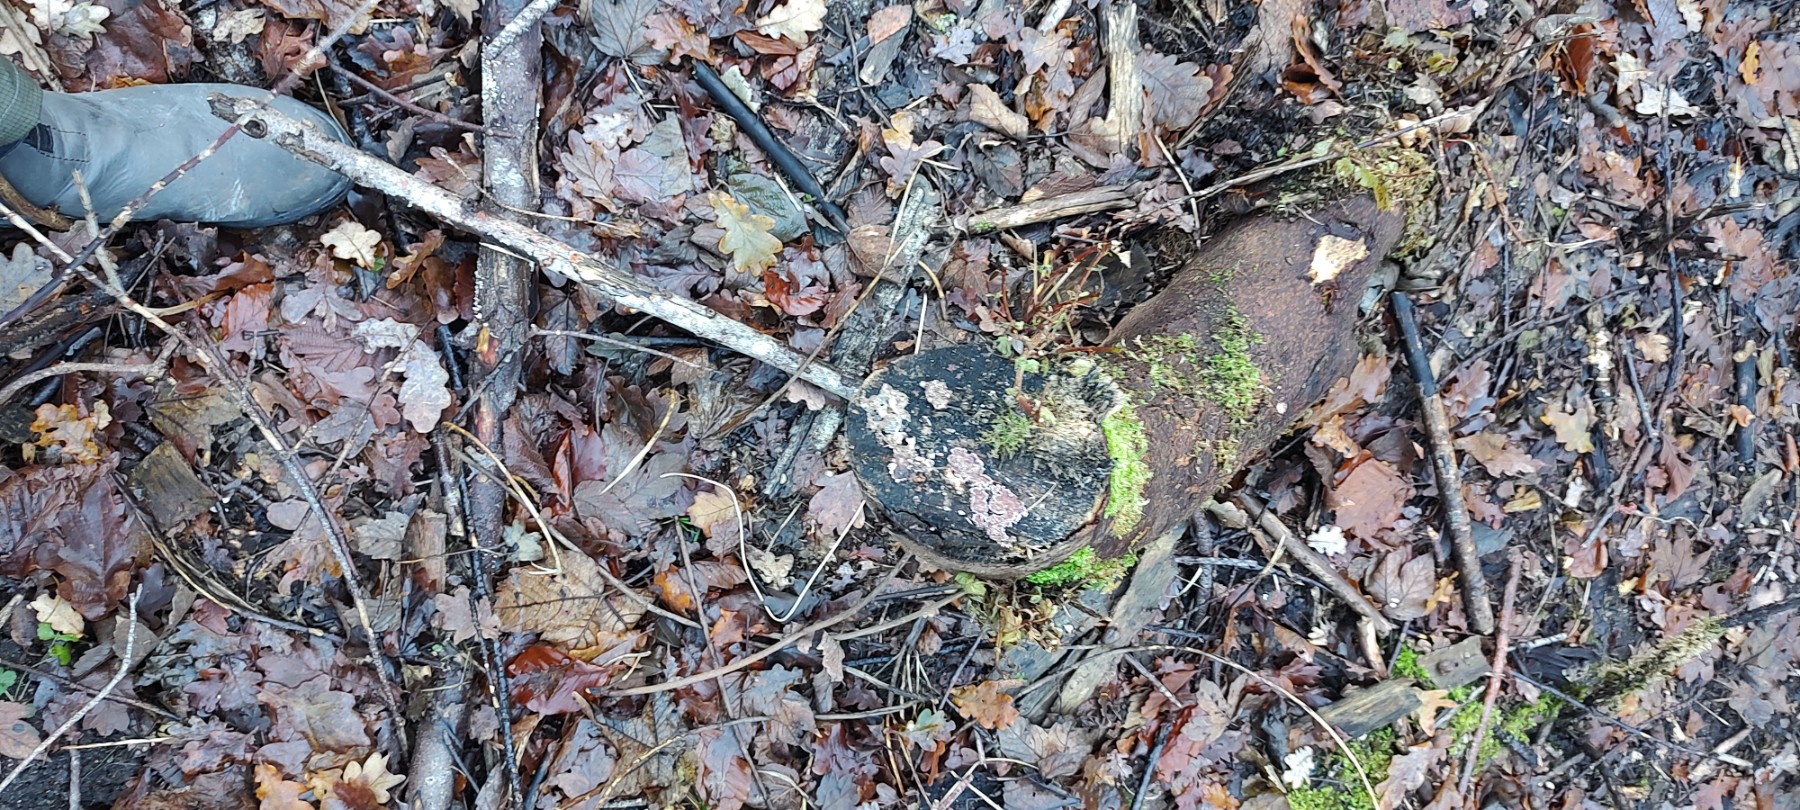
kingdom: Fungi
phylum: Basidiomycota
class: Agaricomycetes
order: Agaricales
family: Cyphellaceae
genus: Chondrostereum
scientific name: Chondrostereum purpureum
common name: purpurlædersvamp
